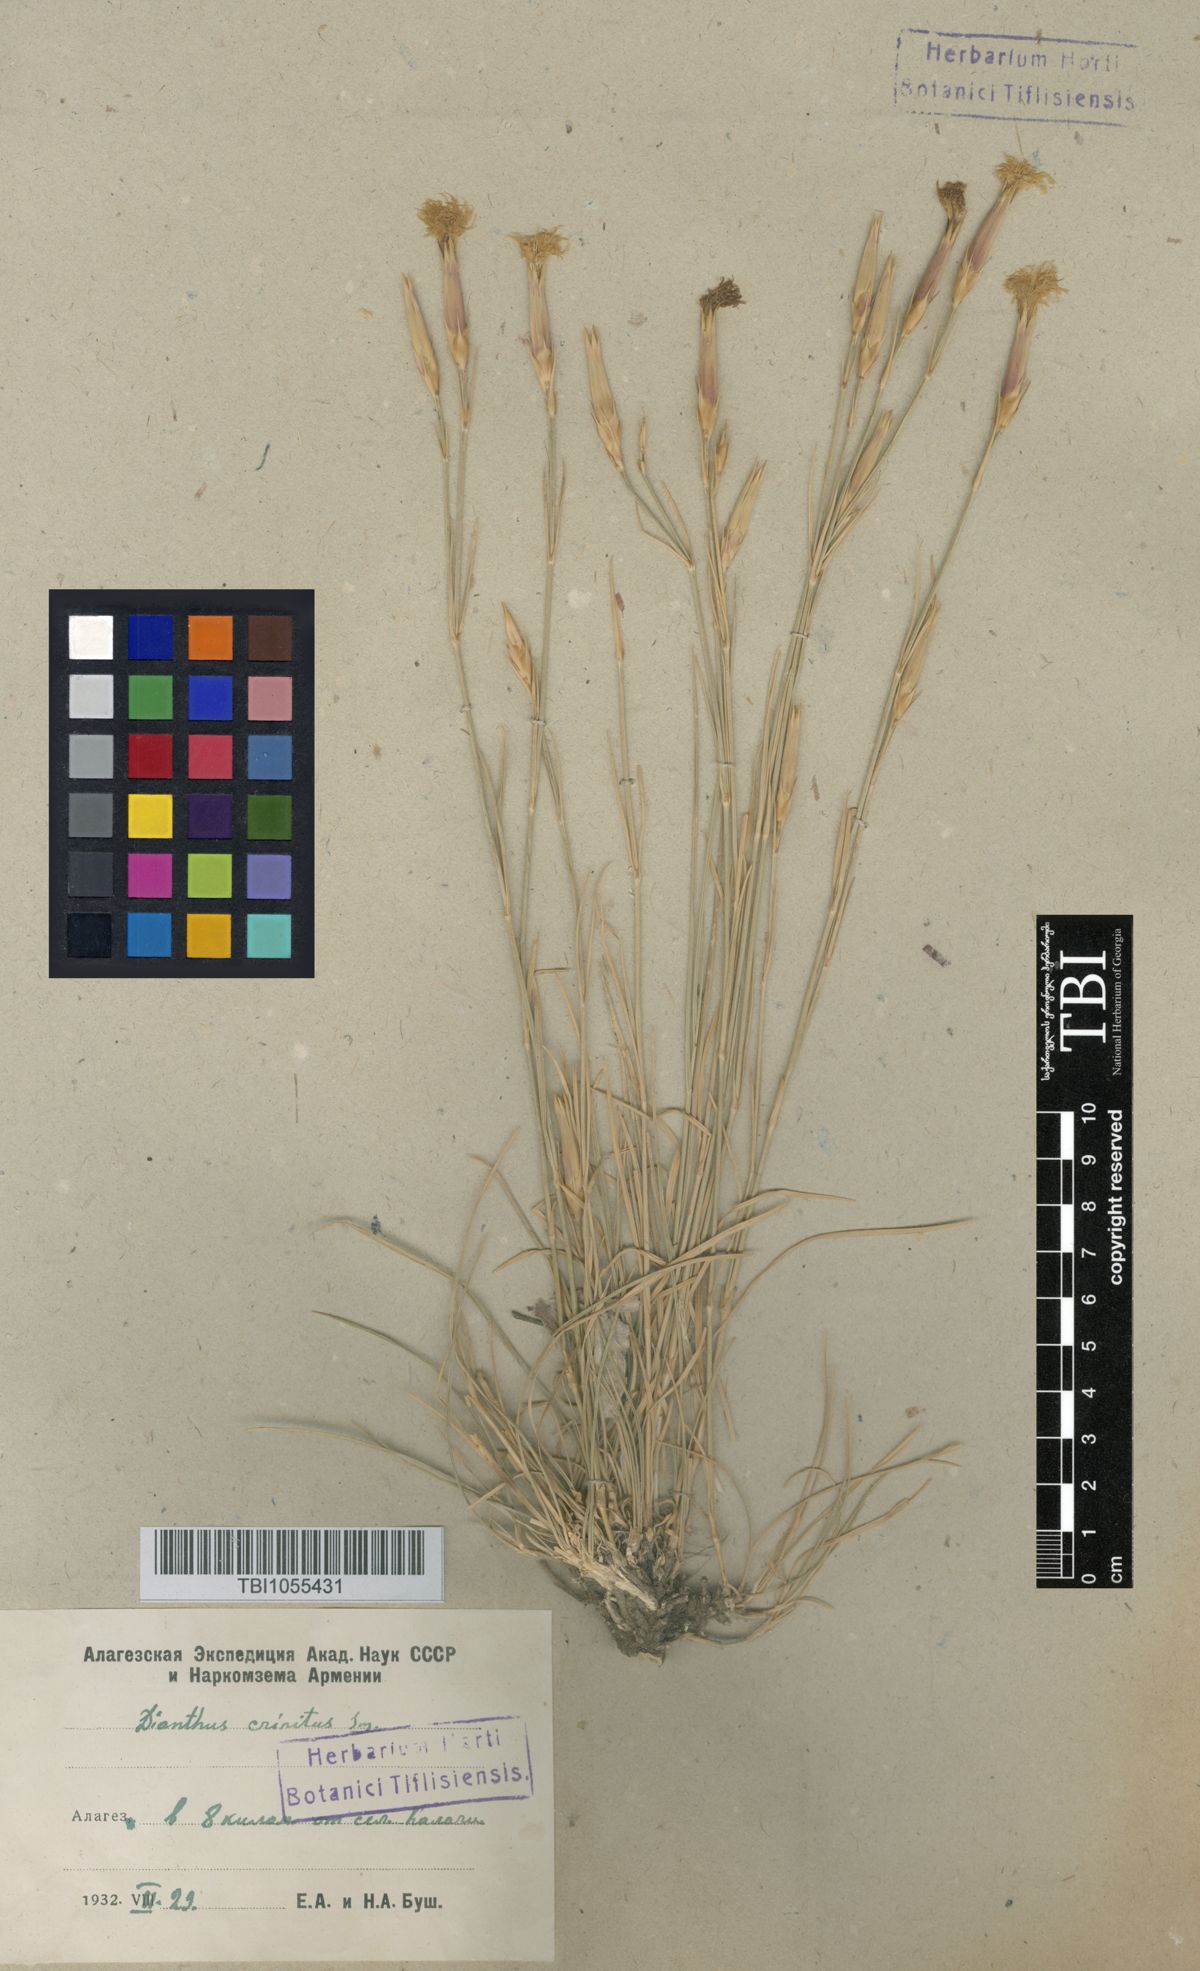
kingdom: Plantae
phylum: Tracheophyta
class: Magnoliopsida
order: Caryophyllales
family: Caryophyllaceae
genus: Dianthus
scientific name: Dianthus crinitus
